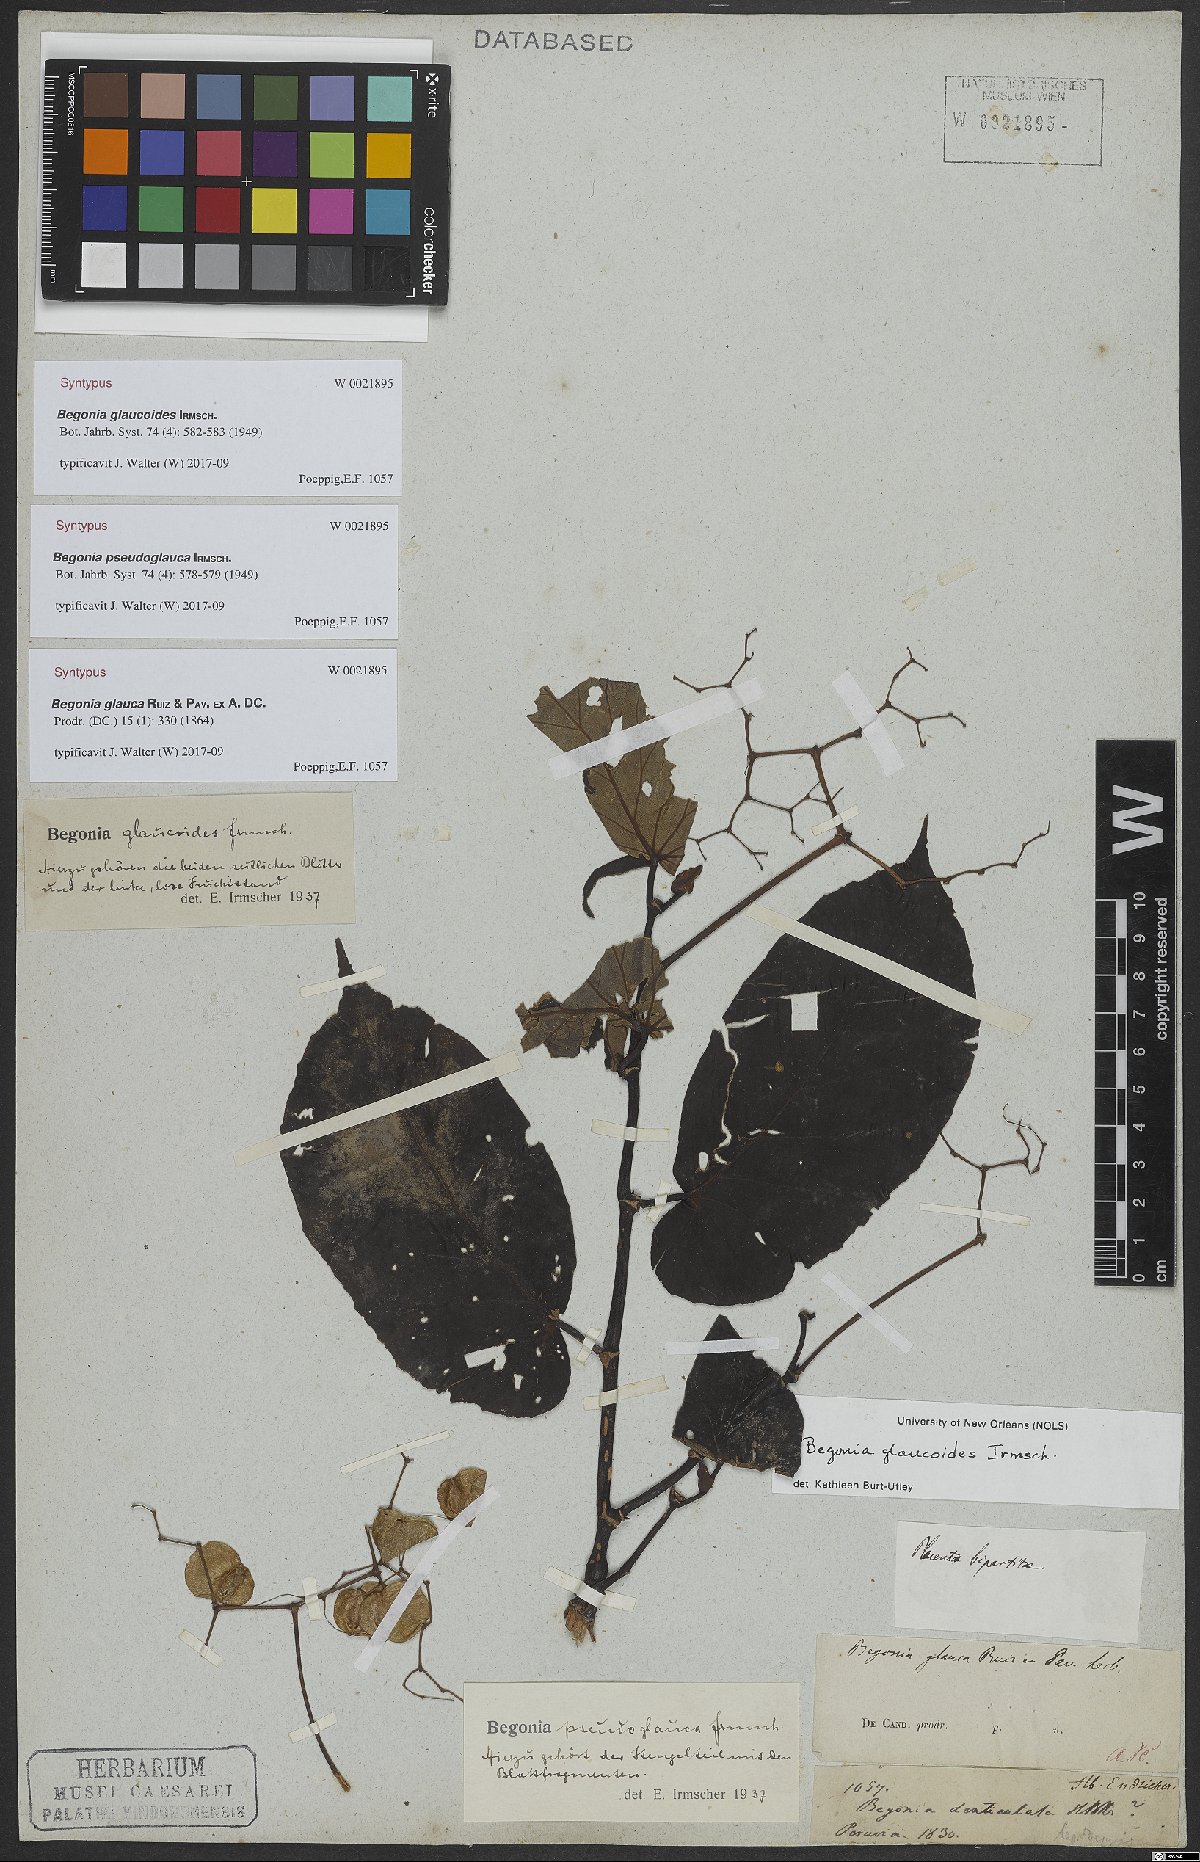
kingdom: Plantae
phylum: Tracheophyta
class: Magnoliopsida
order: Cucurbitales
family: Begoniaceae
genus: Begonia
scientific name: Begonia glaucoides
